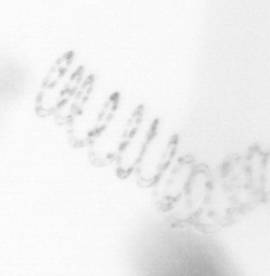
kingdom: Chromista
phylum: Ochrophyta
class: Bacillariophyceae
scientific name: Bacillariophyceae
